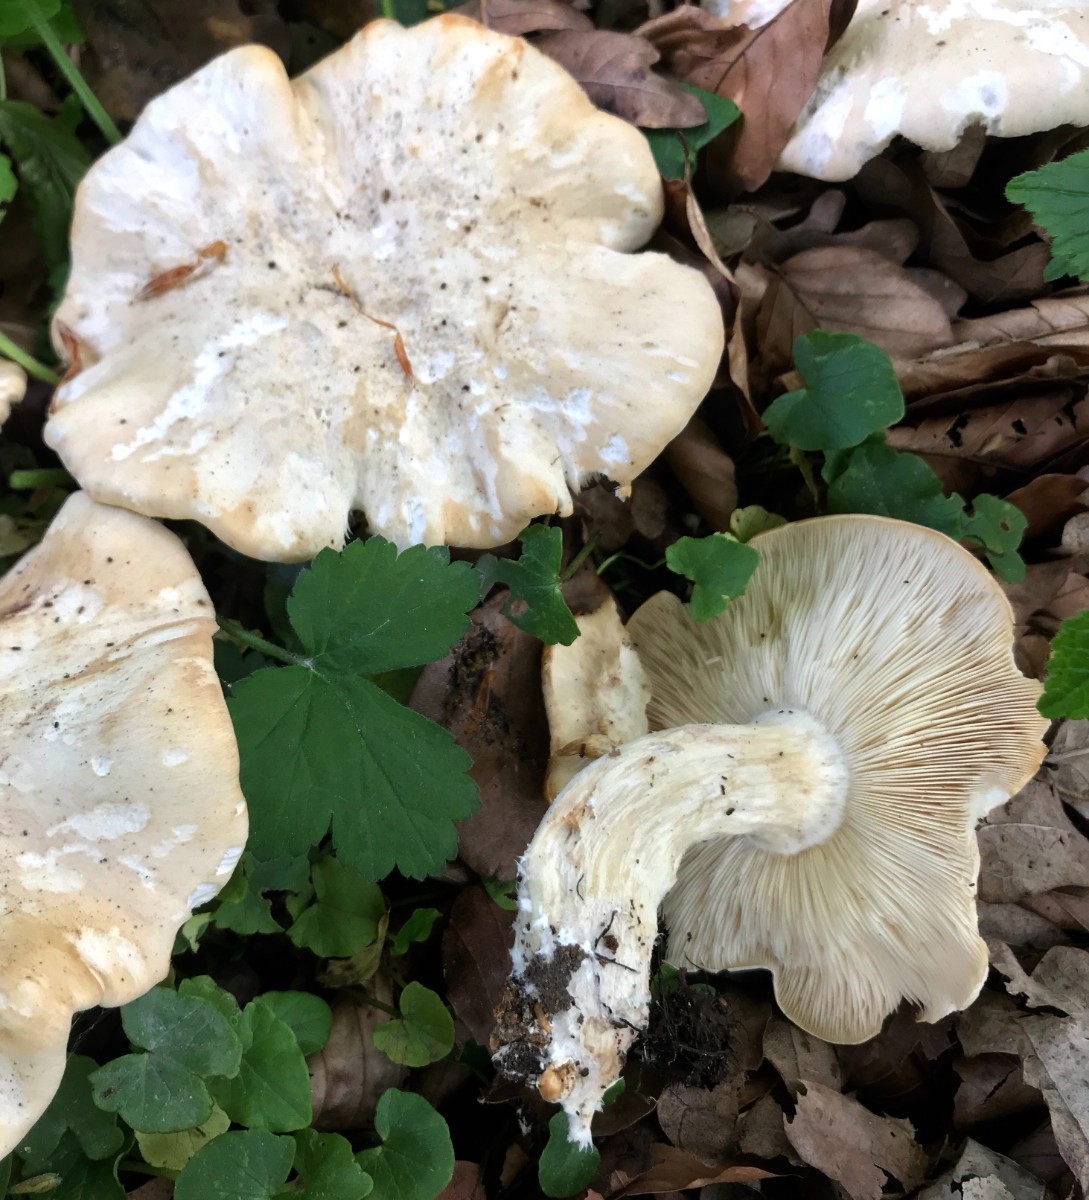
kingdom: Fungi
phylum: Basidiomycota
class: Agaricomycetes
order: Agaricales
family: Lyophyllaceae
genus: Calocybe
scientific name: Calocybe gambosa
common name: vårmusseron
